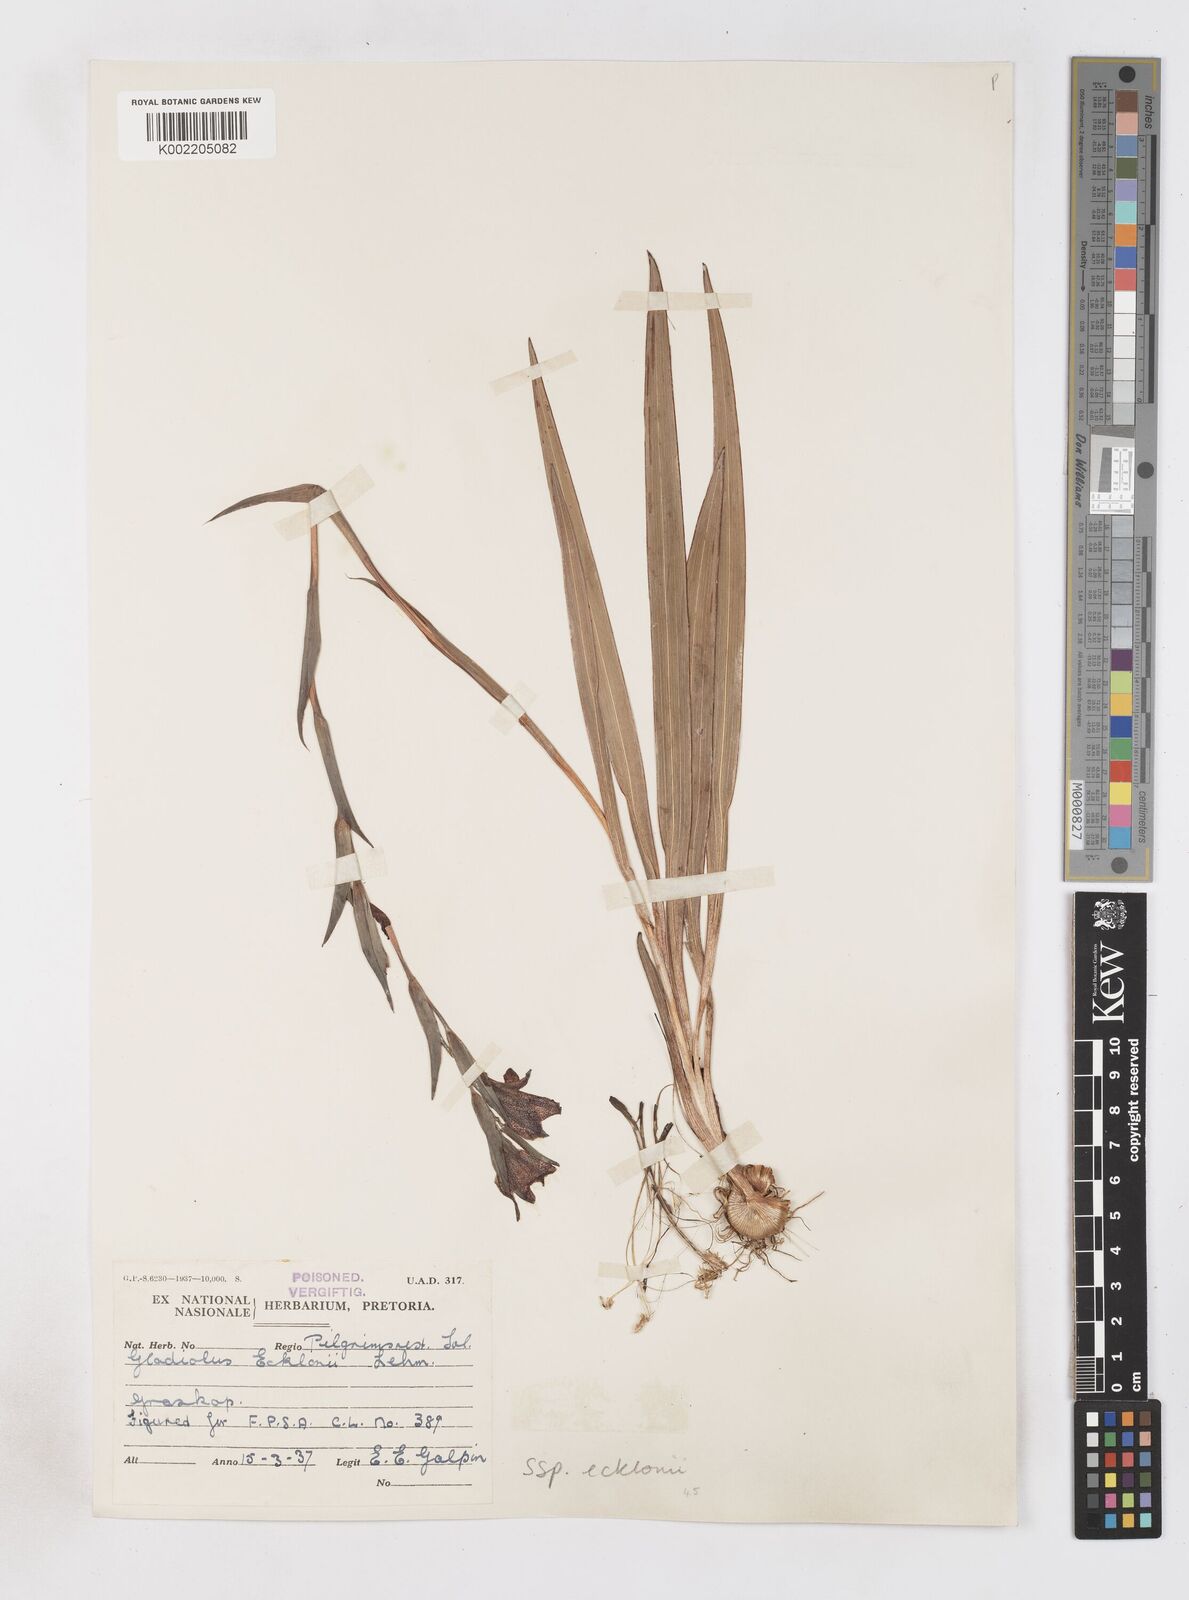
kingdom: Plantae
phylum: Tracheophyta
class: Liliopsida
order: Asparagales
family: Iridaceae
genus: Gladiolus
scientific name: Gladiolus ecklonii
